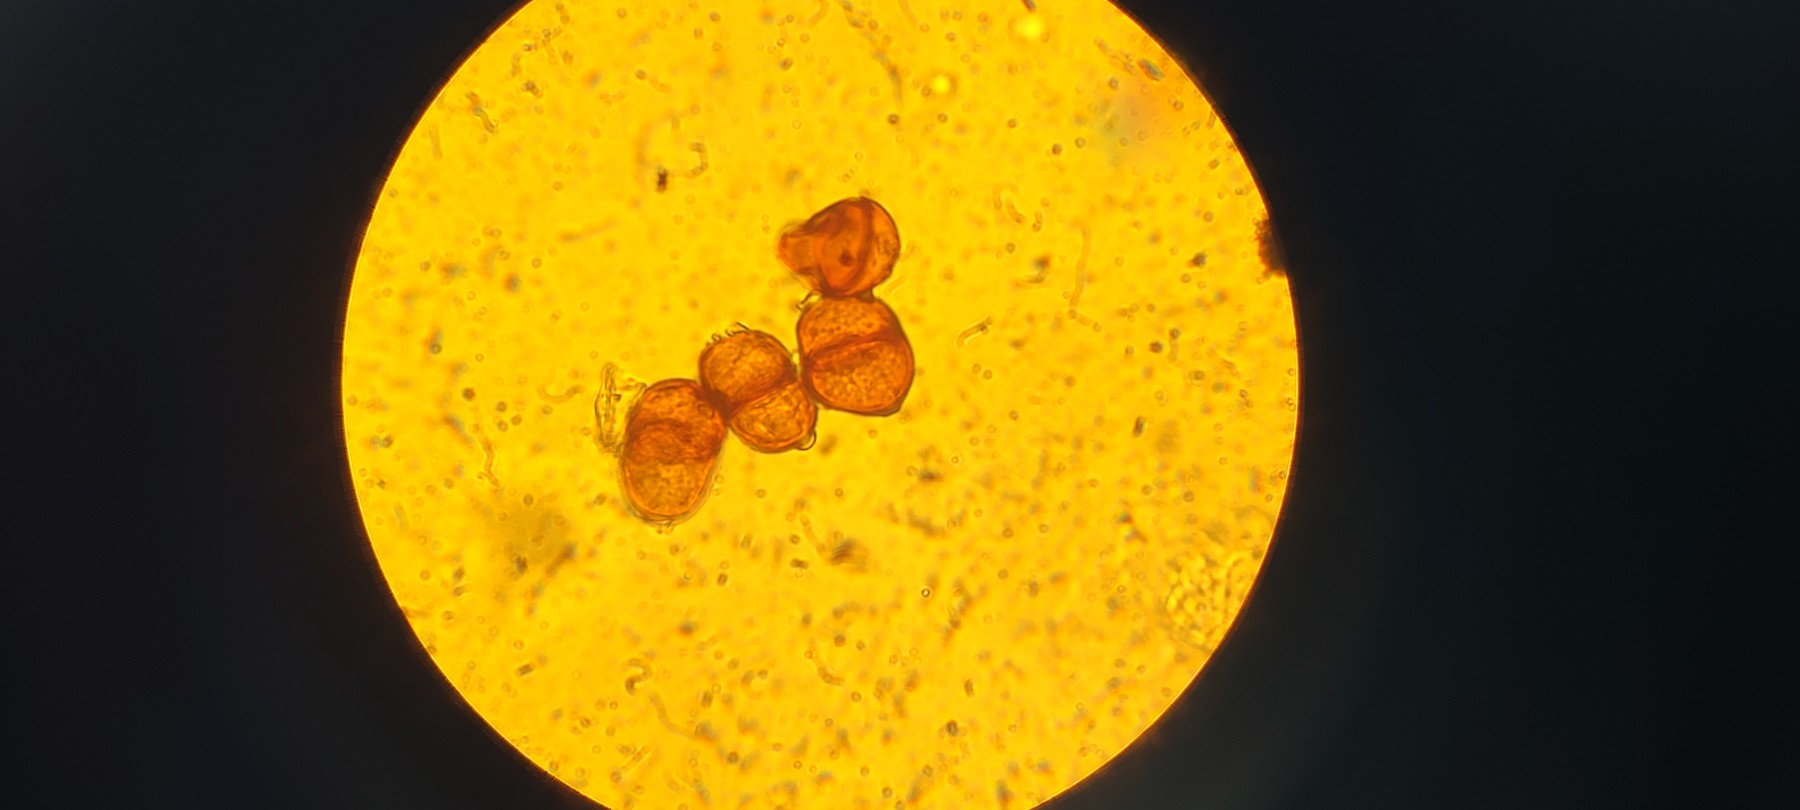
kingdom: Fungi
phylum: Basidiomycota
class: Pucciniomycetes
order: Pucciniales
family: Pucciniaceae
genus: Puccinia
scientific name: Puccinia
